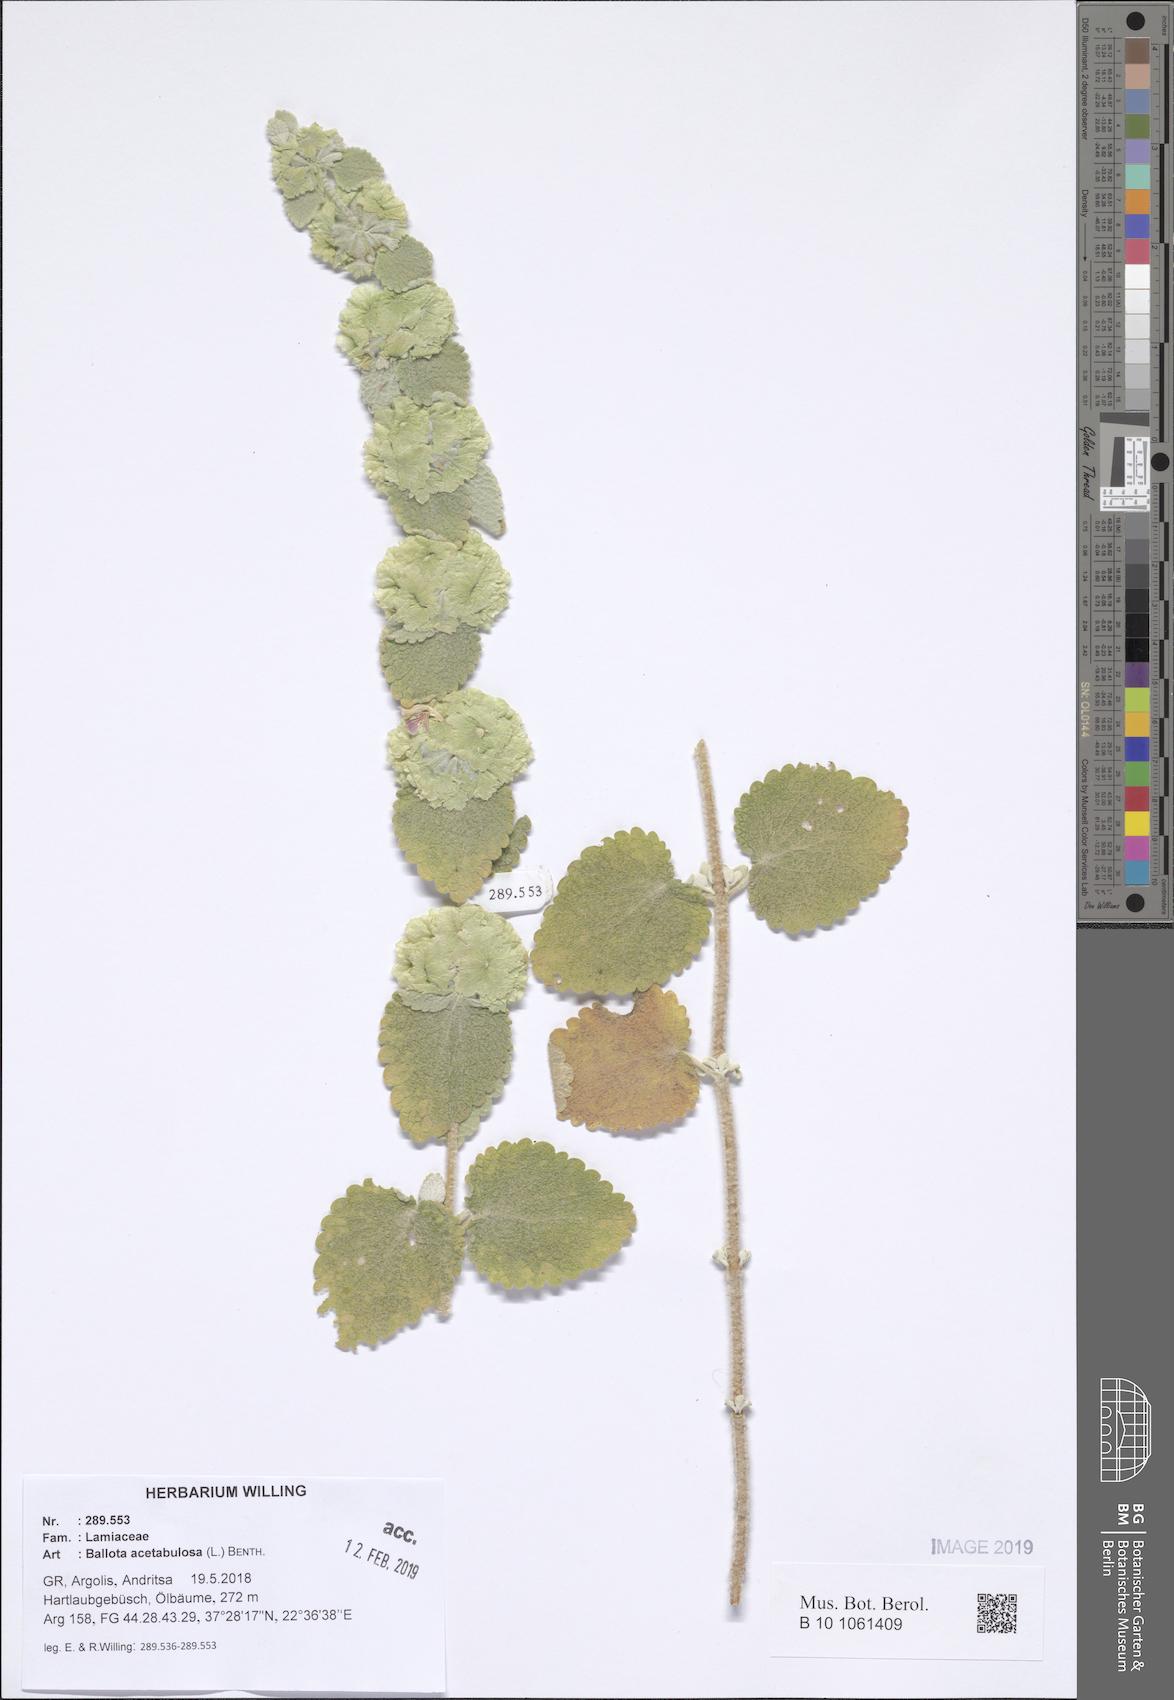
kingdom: Plantae
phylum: Tracheophyta
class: Magnoliopsida
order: Lamiales
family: Lamiaceae
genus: Pseudodictamnus
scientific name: Pseudodictamnus acetabulosus
